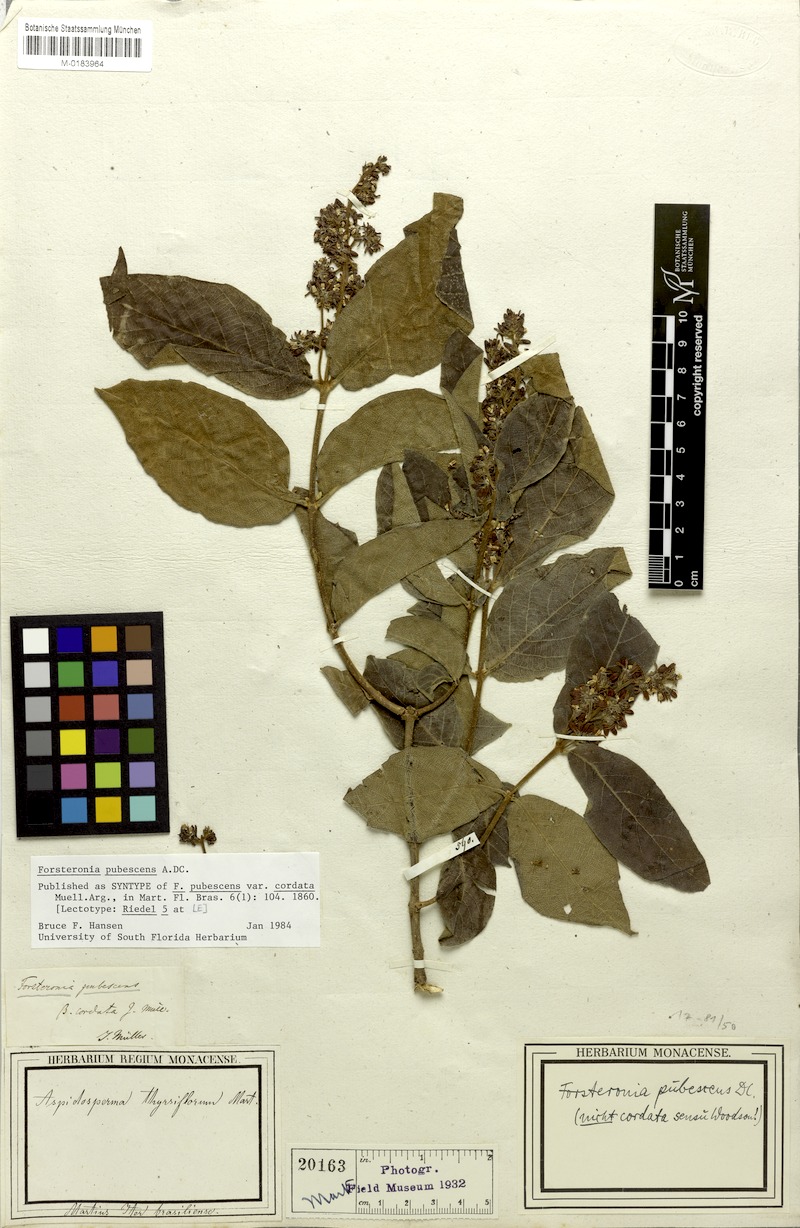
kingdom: Plantae
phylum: Tracheophyta
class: Magnoliopsida
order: Gentianales
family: Apocynaceae
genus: Forsteronia
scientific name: Forsteronia pubescens
